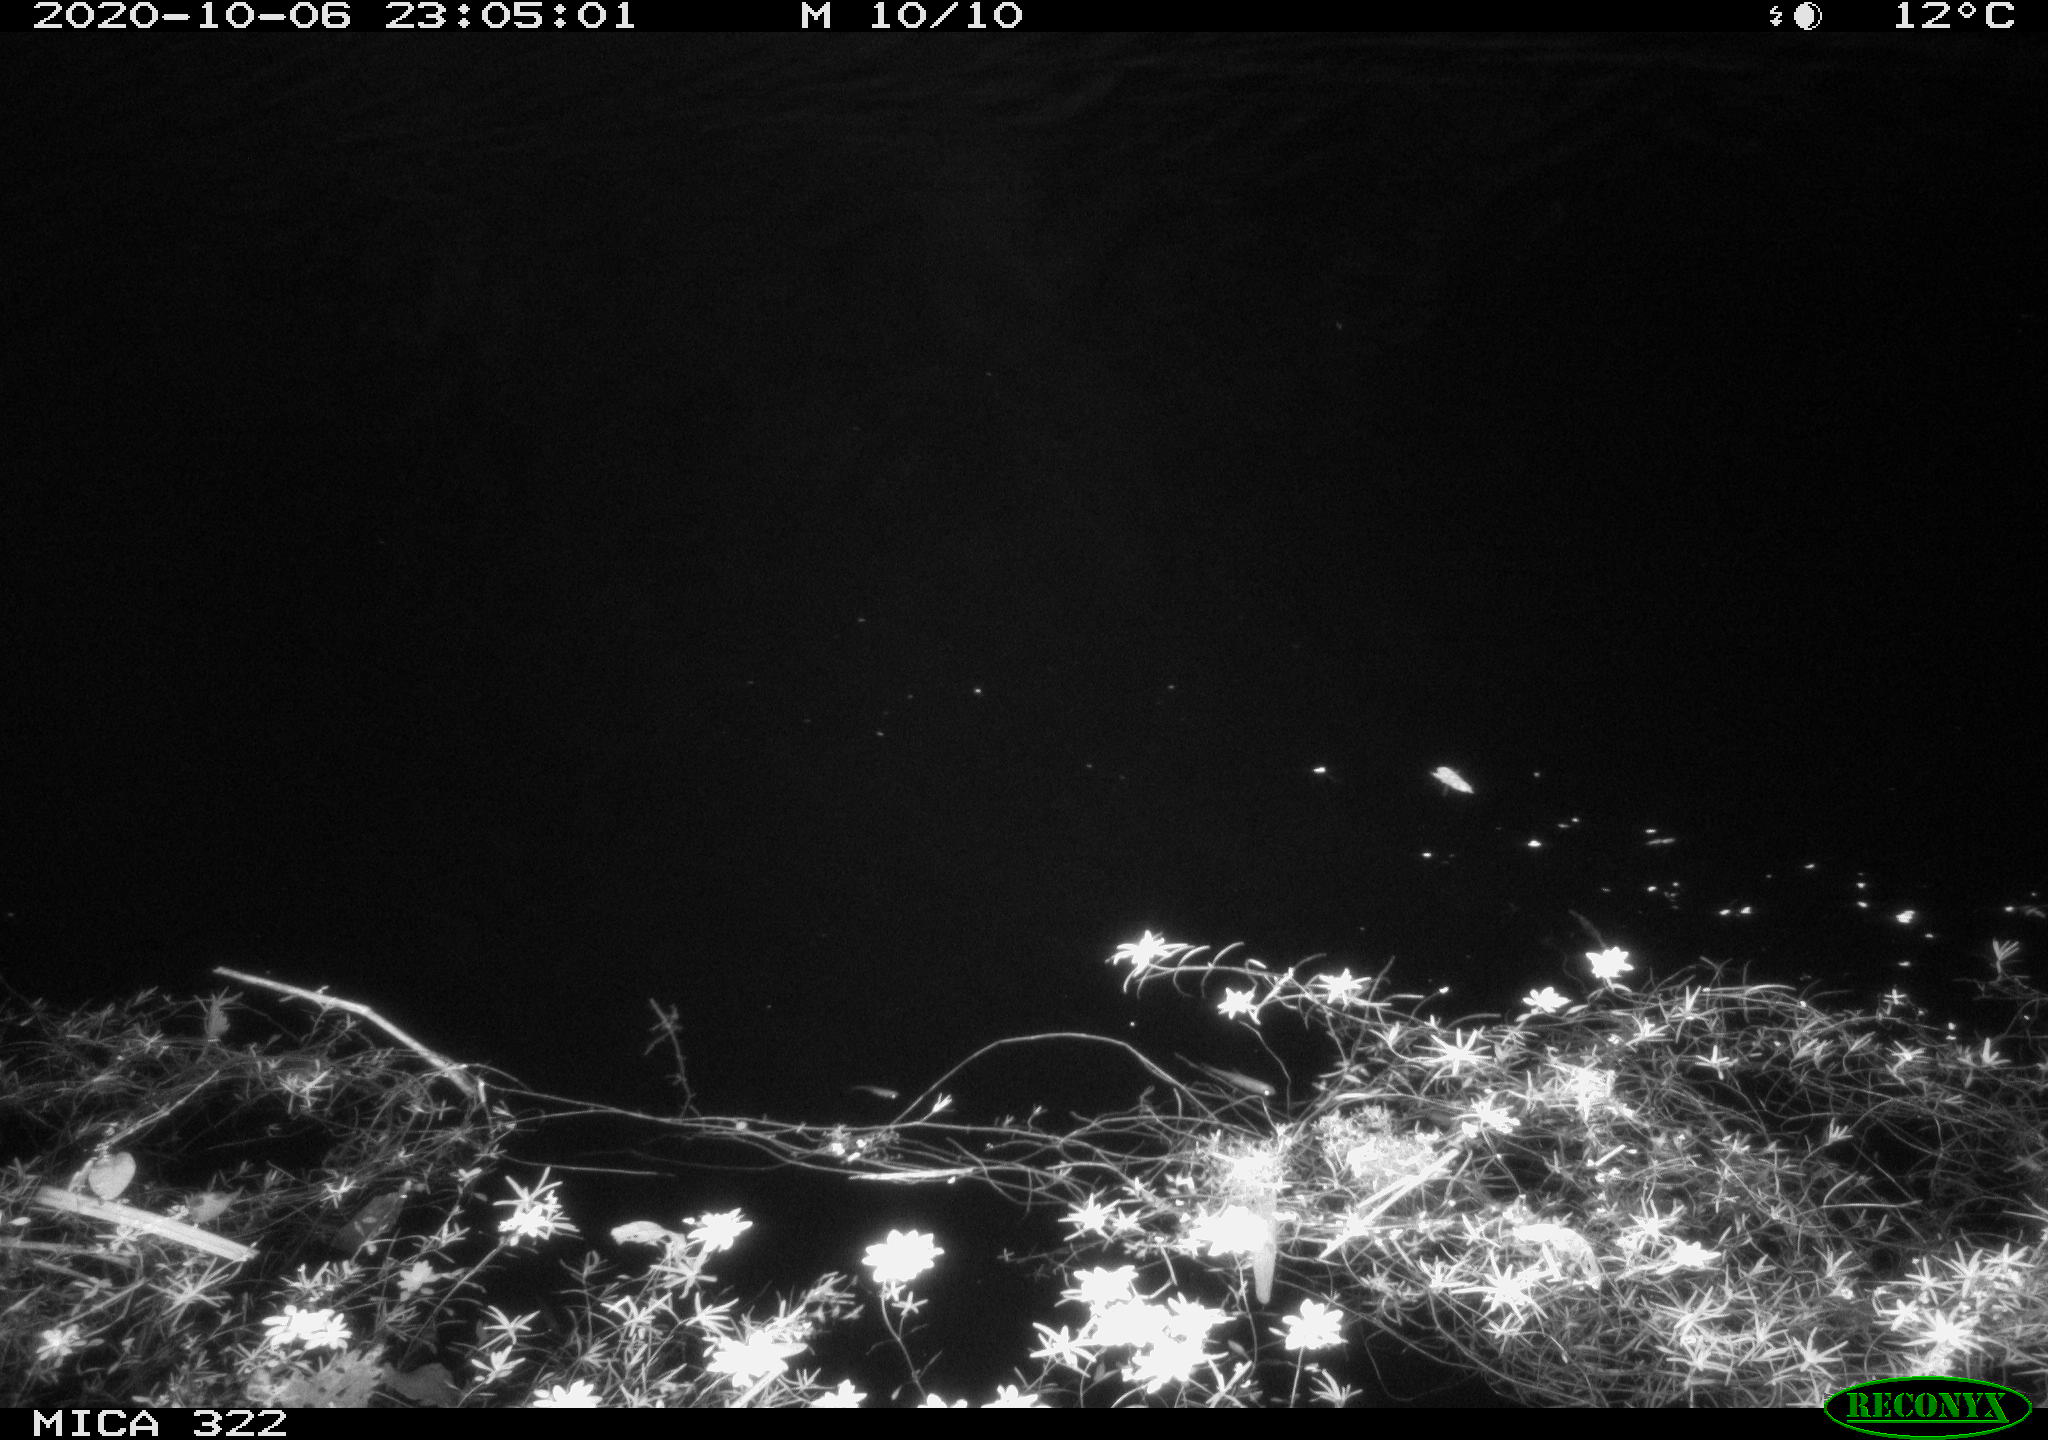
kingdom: Animalia
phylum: Chordata
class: Mammalia
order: Rodentia
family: Muridae
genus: Rattus
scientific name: Rattus norvegicus
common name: Brown rat
